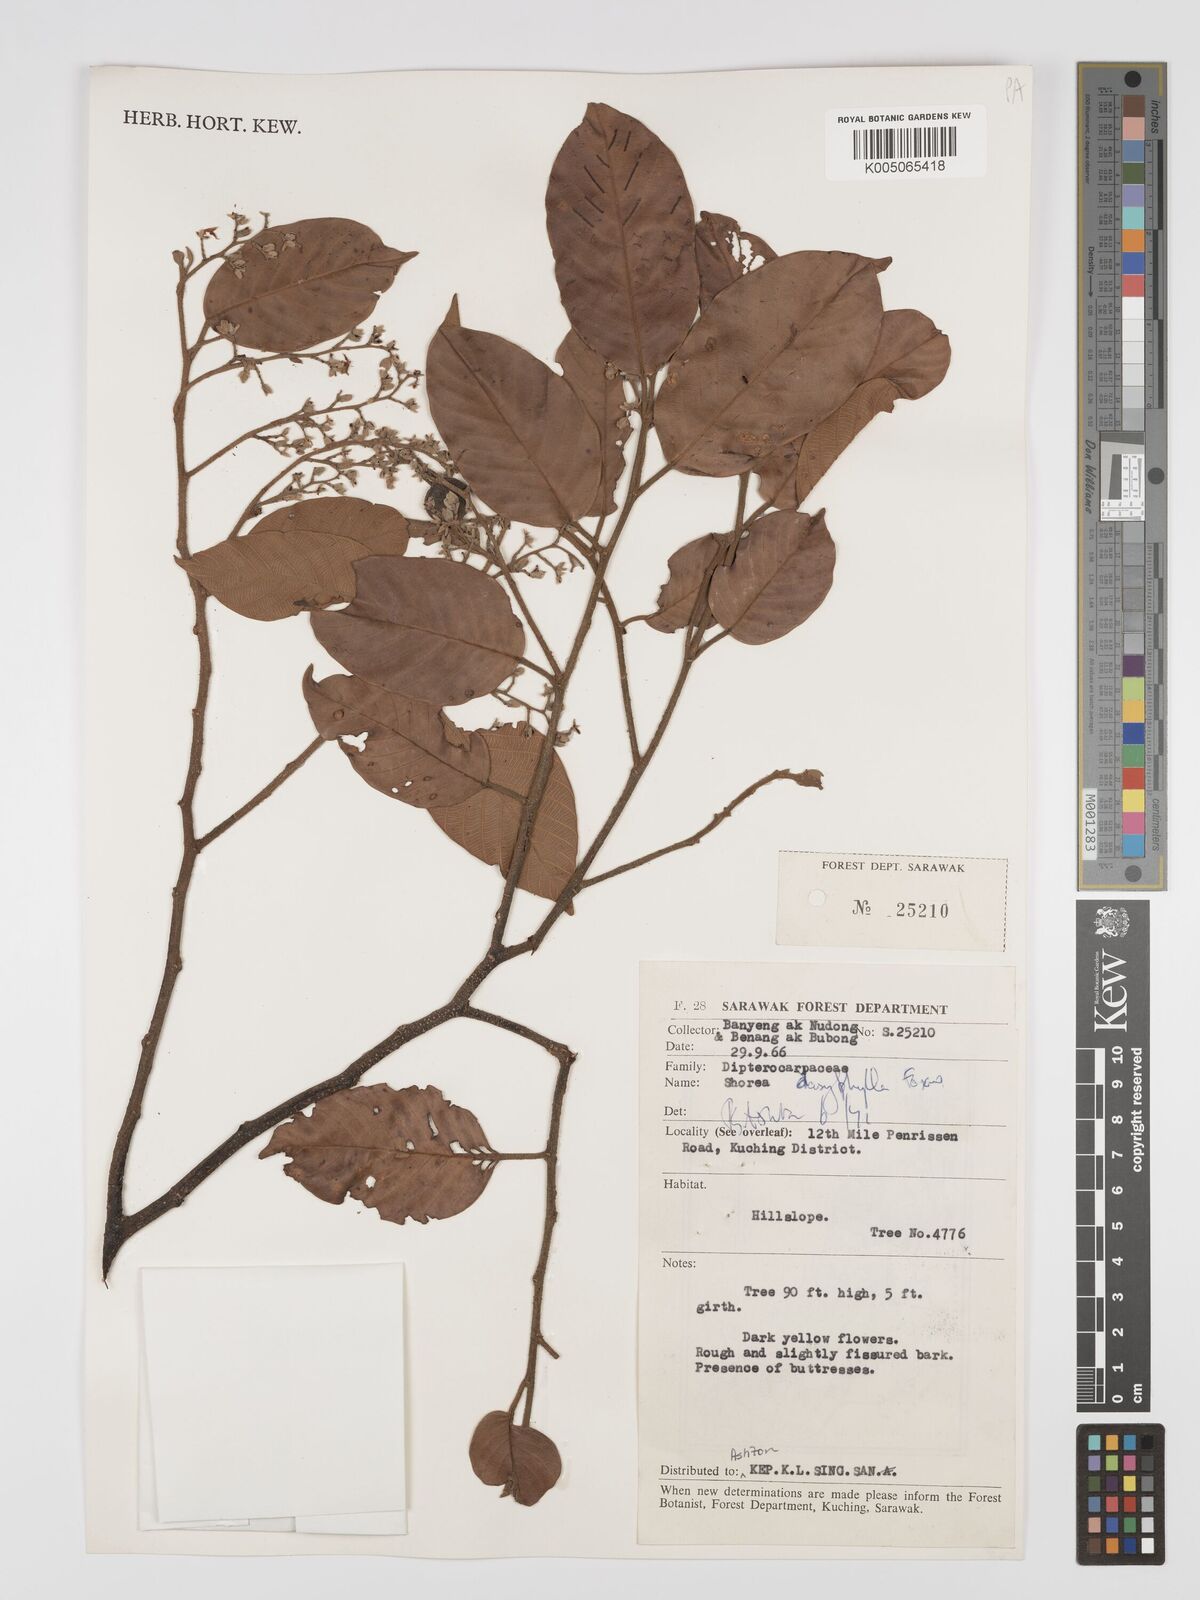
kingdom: Plantae
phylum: Tracheophyta
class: Magnoliopsida
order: Malvales
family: Dipterocarpaceae
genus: Shorea
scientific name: Shorea dasyphylla
